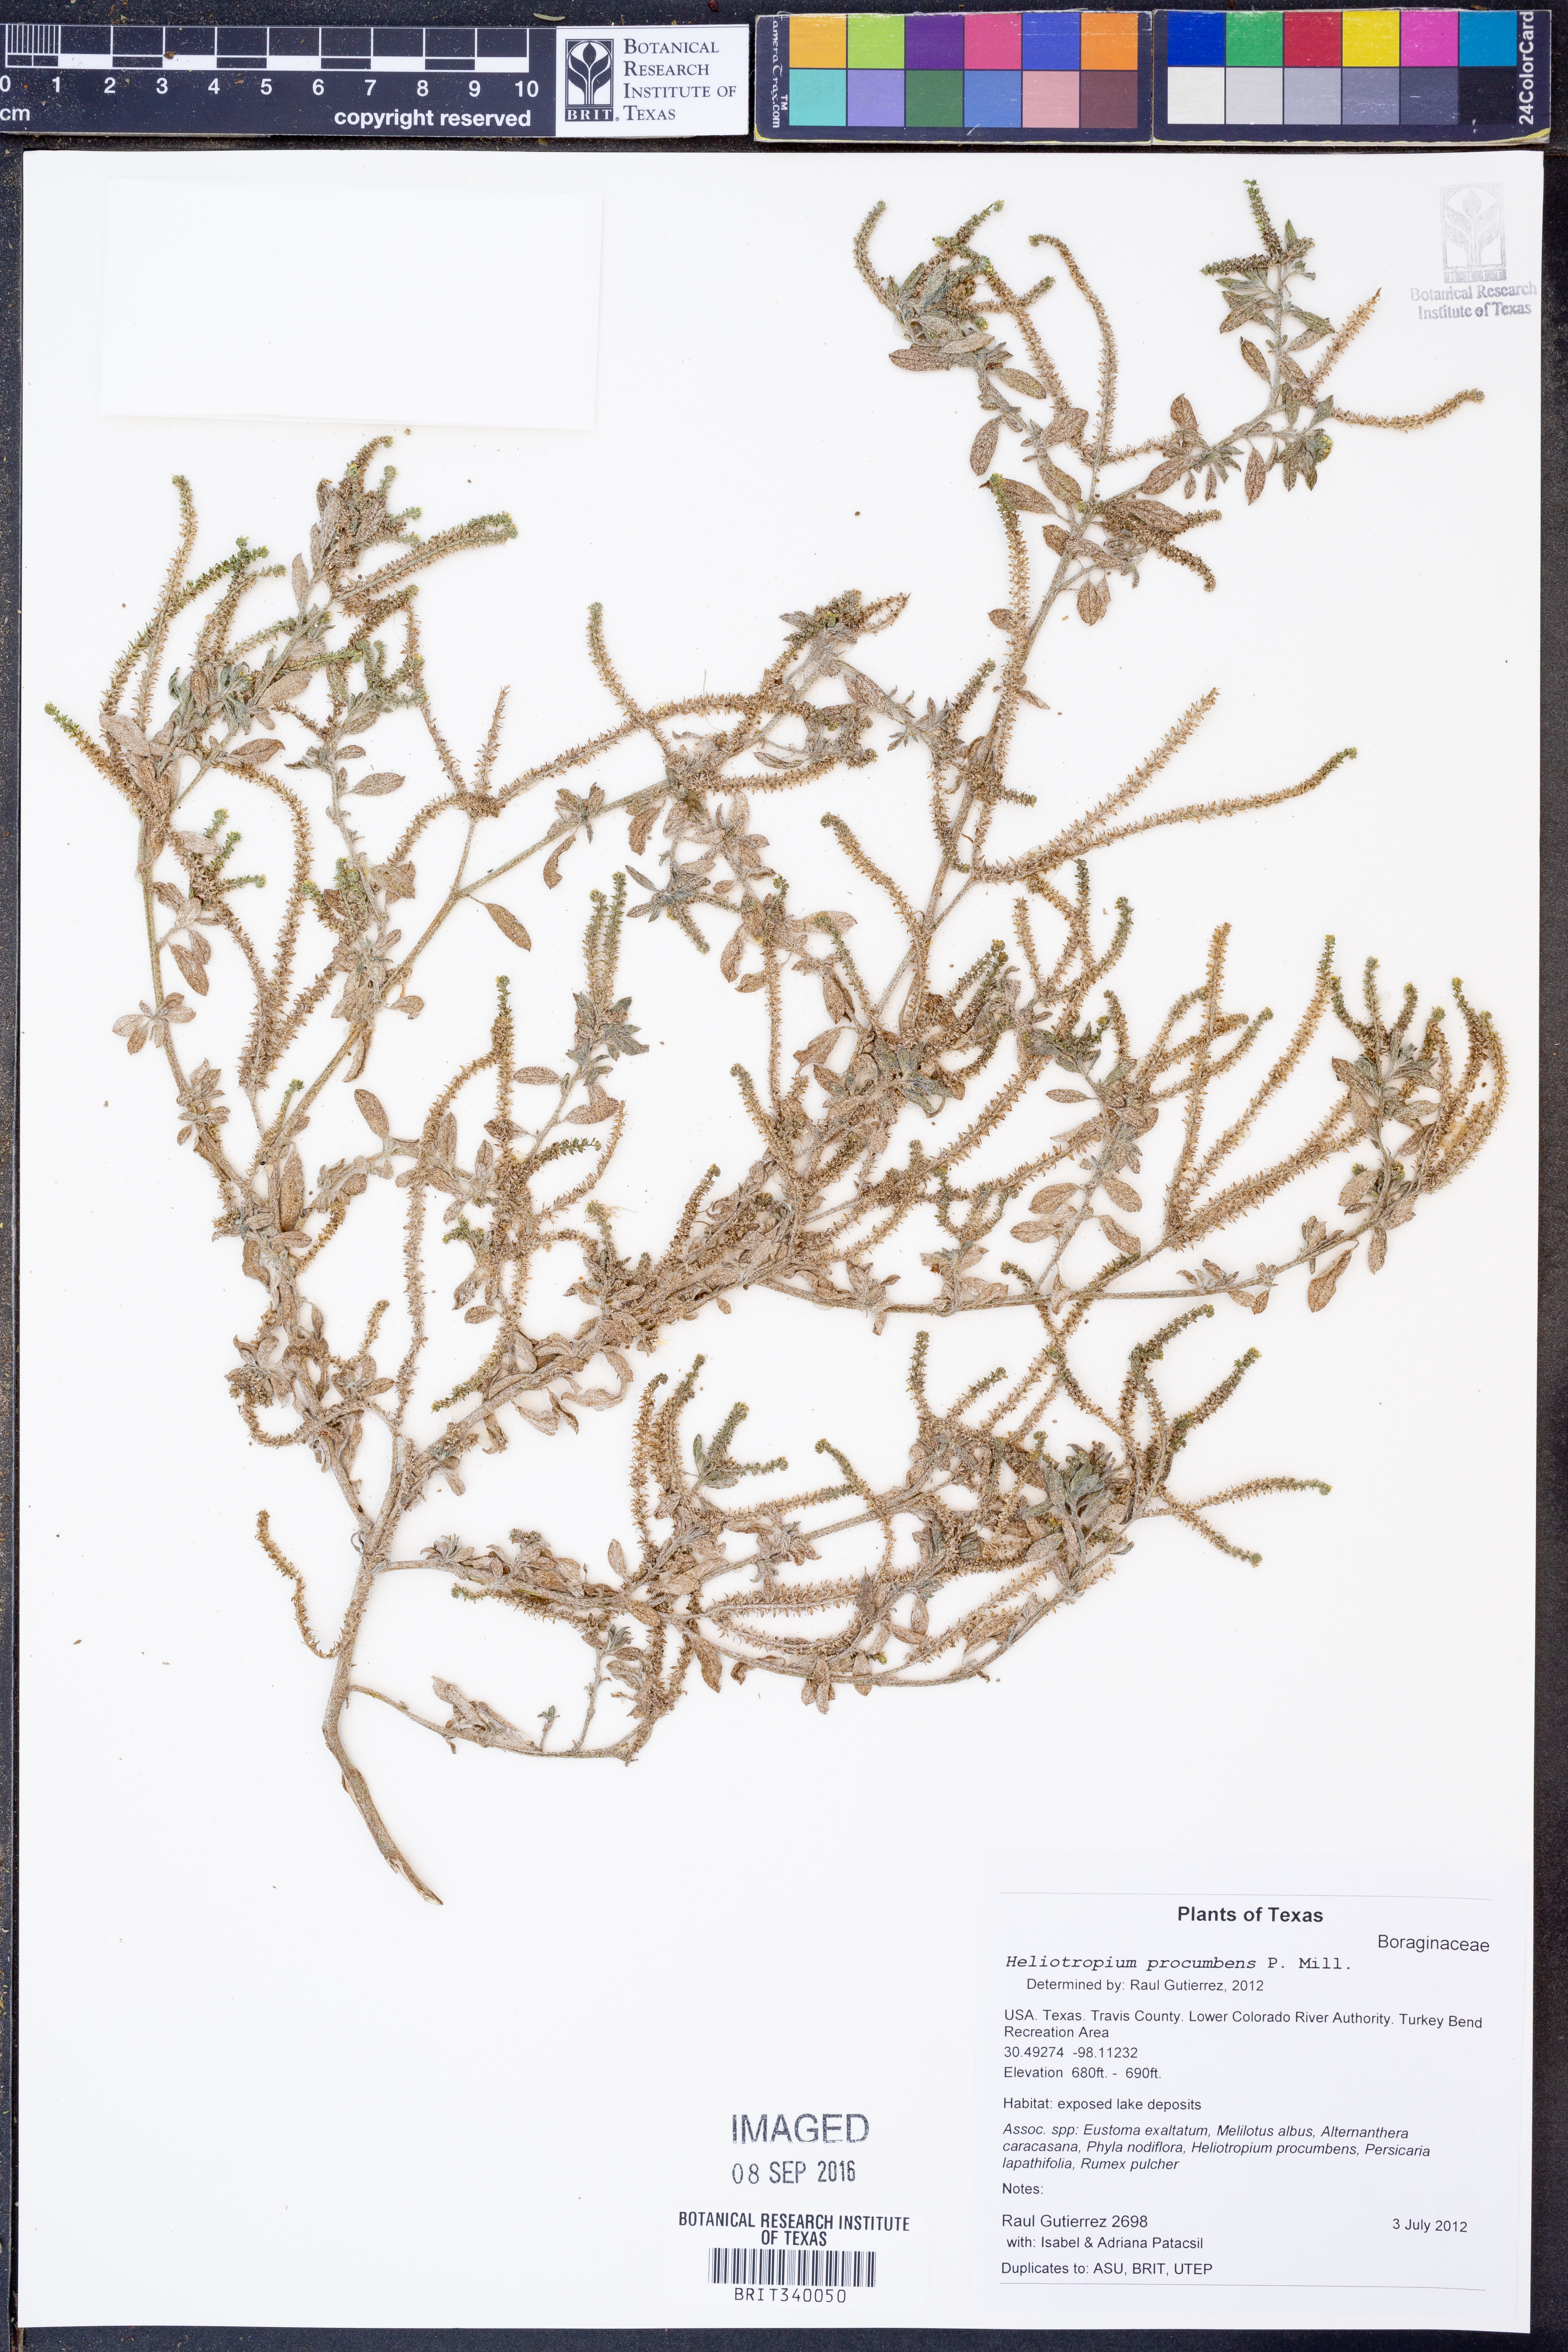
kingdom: Plantae
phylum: Tracheophyta
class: Magnoliopsida
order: Boraginales
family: Heliotropiaceae
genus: Euploca
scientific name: Euploca procumbens
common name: Fourspike heliotrope
